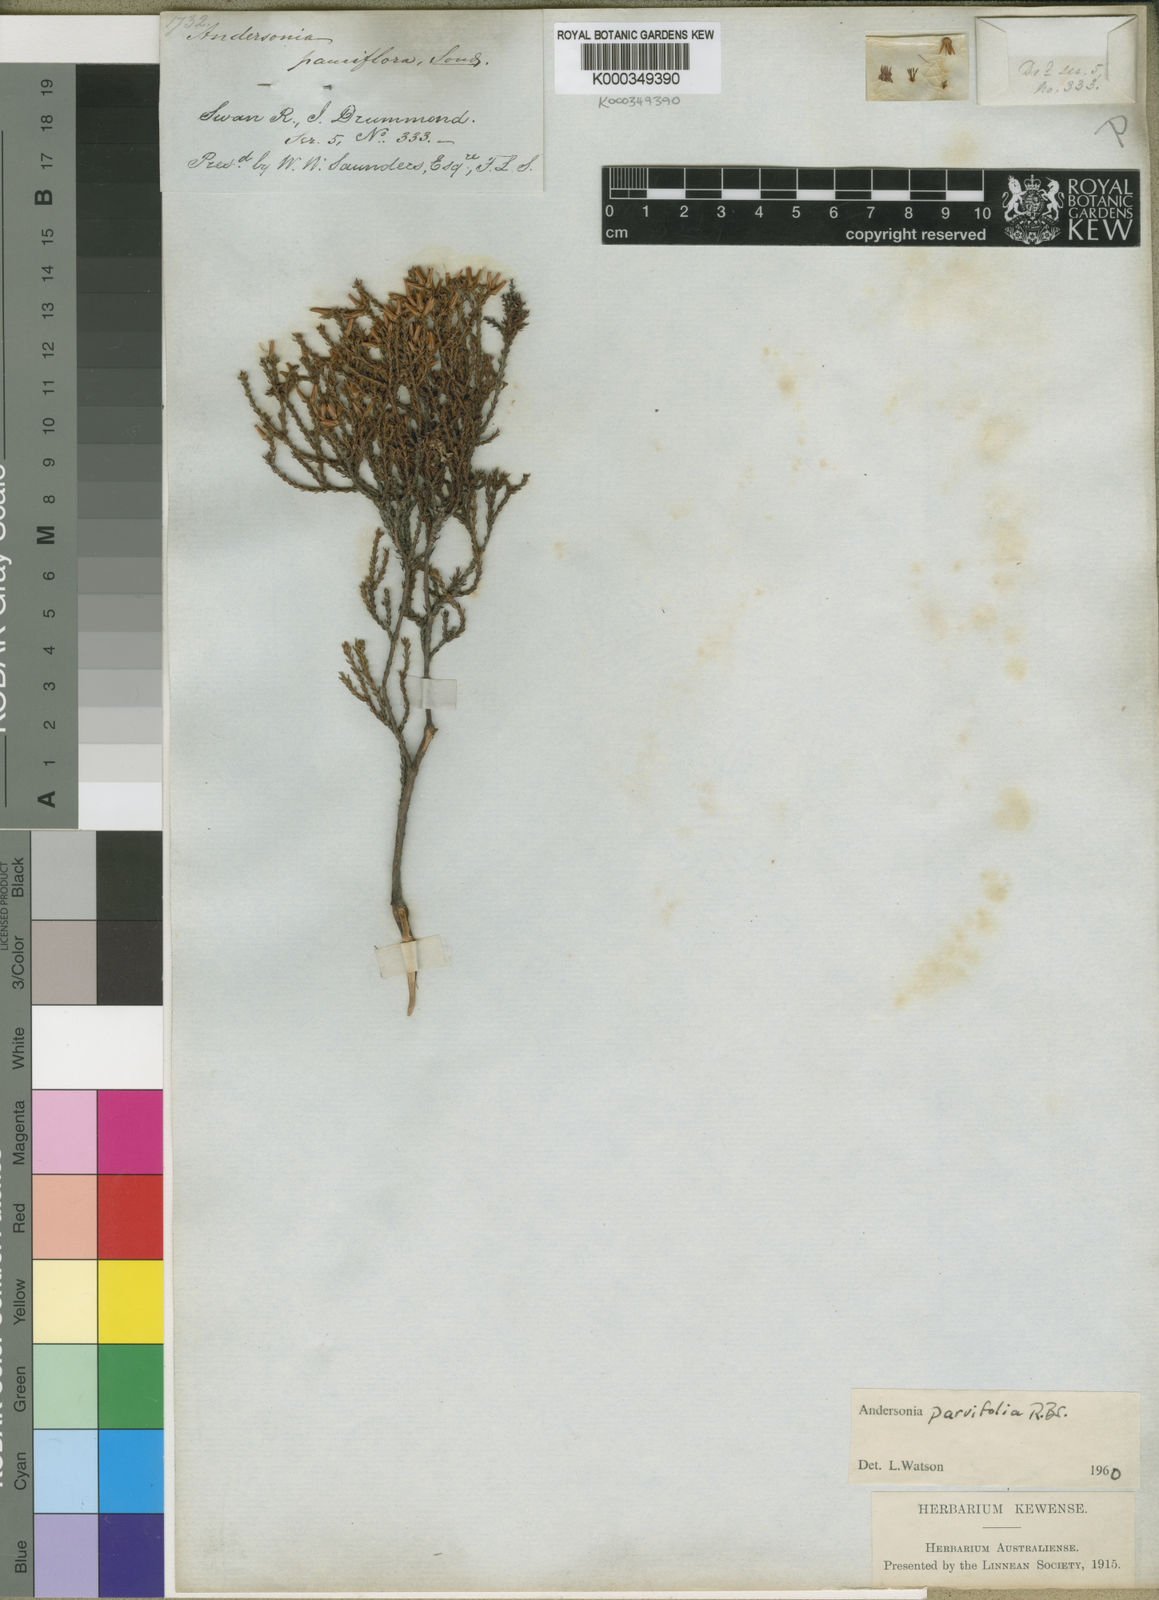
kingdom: Plantae
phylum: Tracheophyta
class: Magnoliopsida
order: Ericales
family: Ericaceae
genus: Andersonia
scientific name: Andersonia parvifolia
